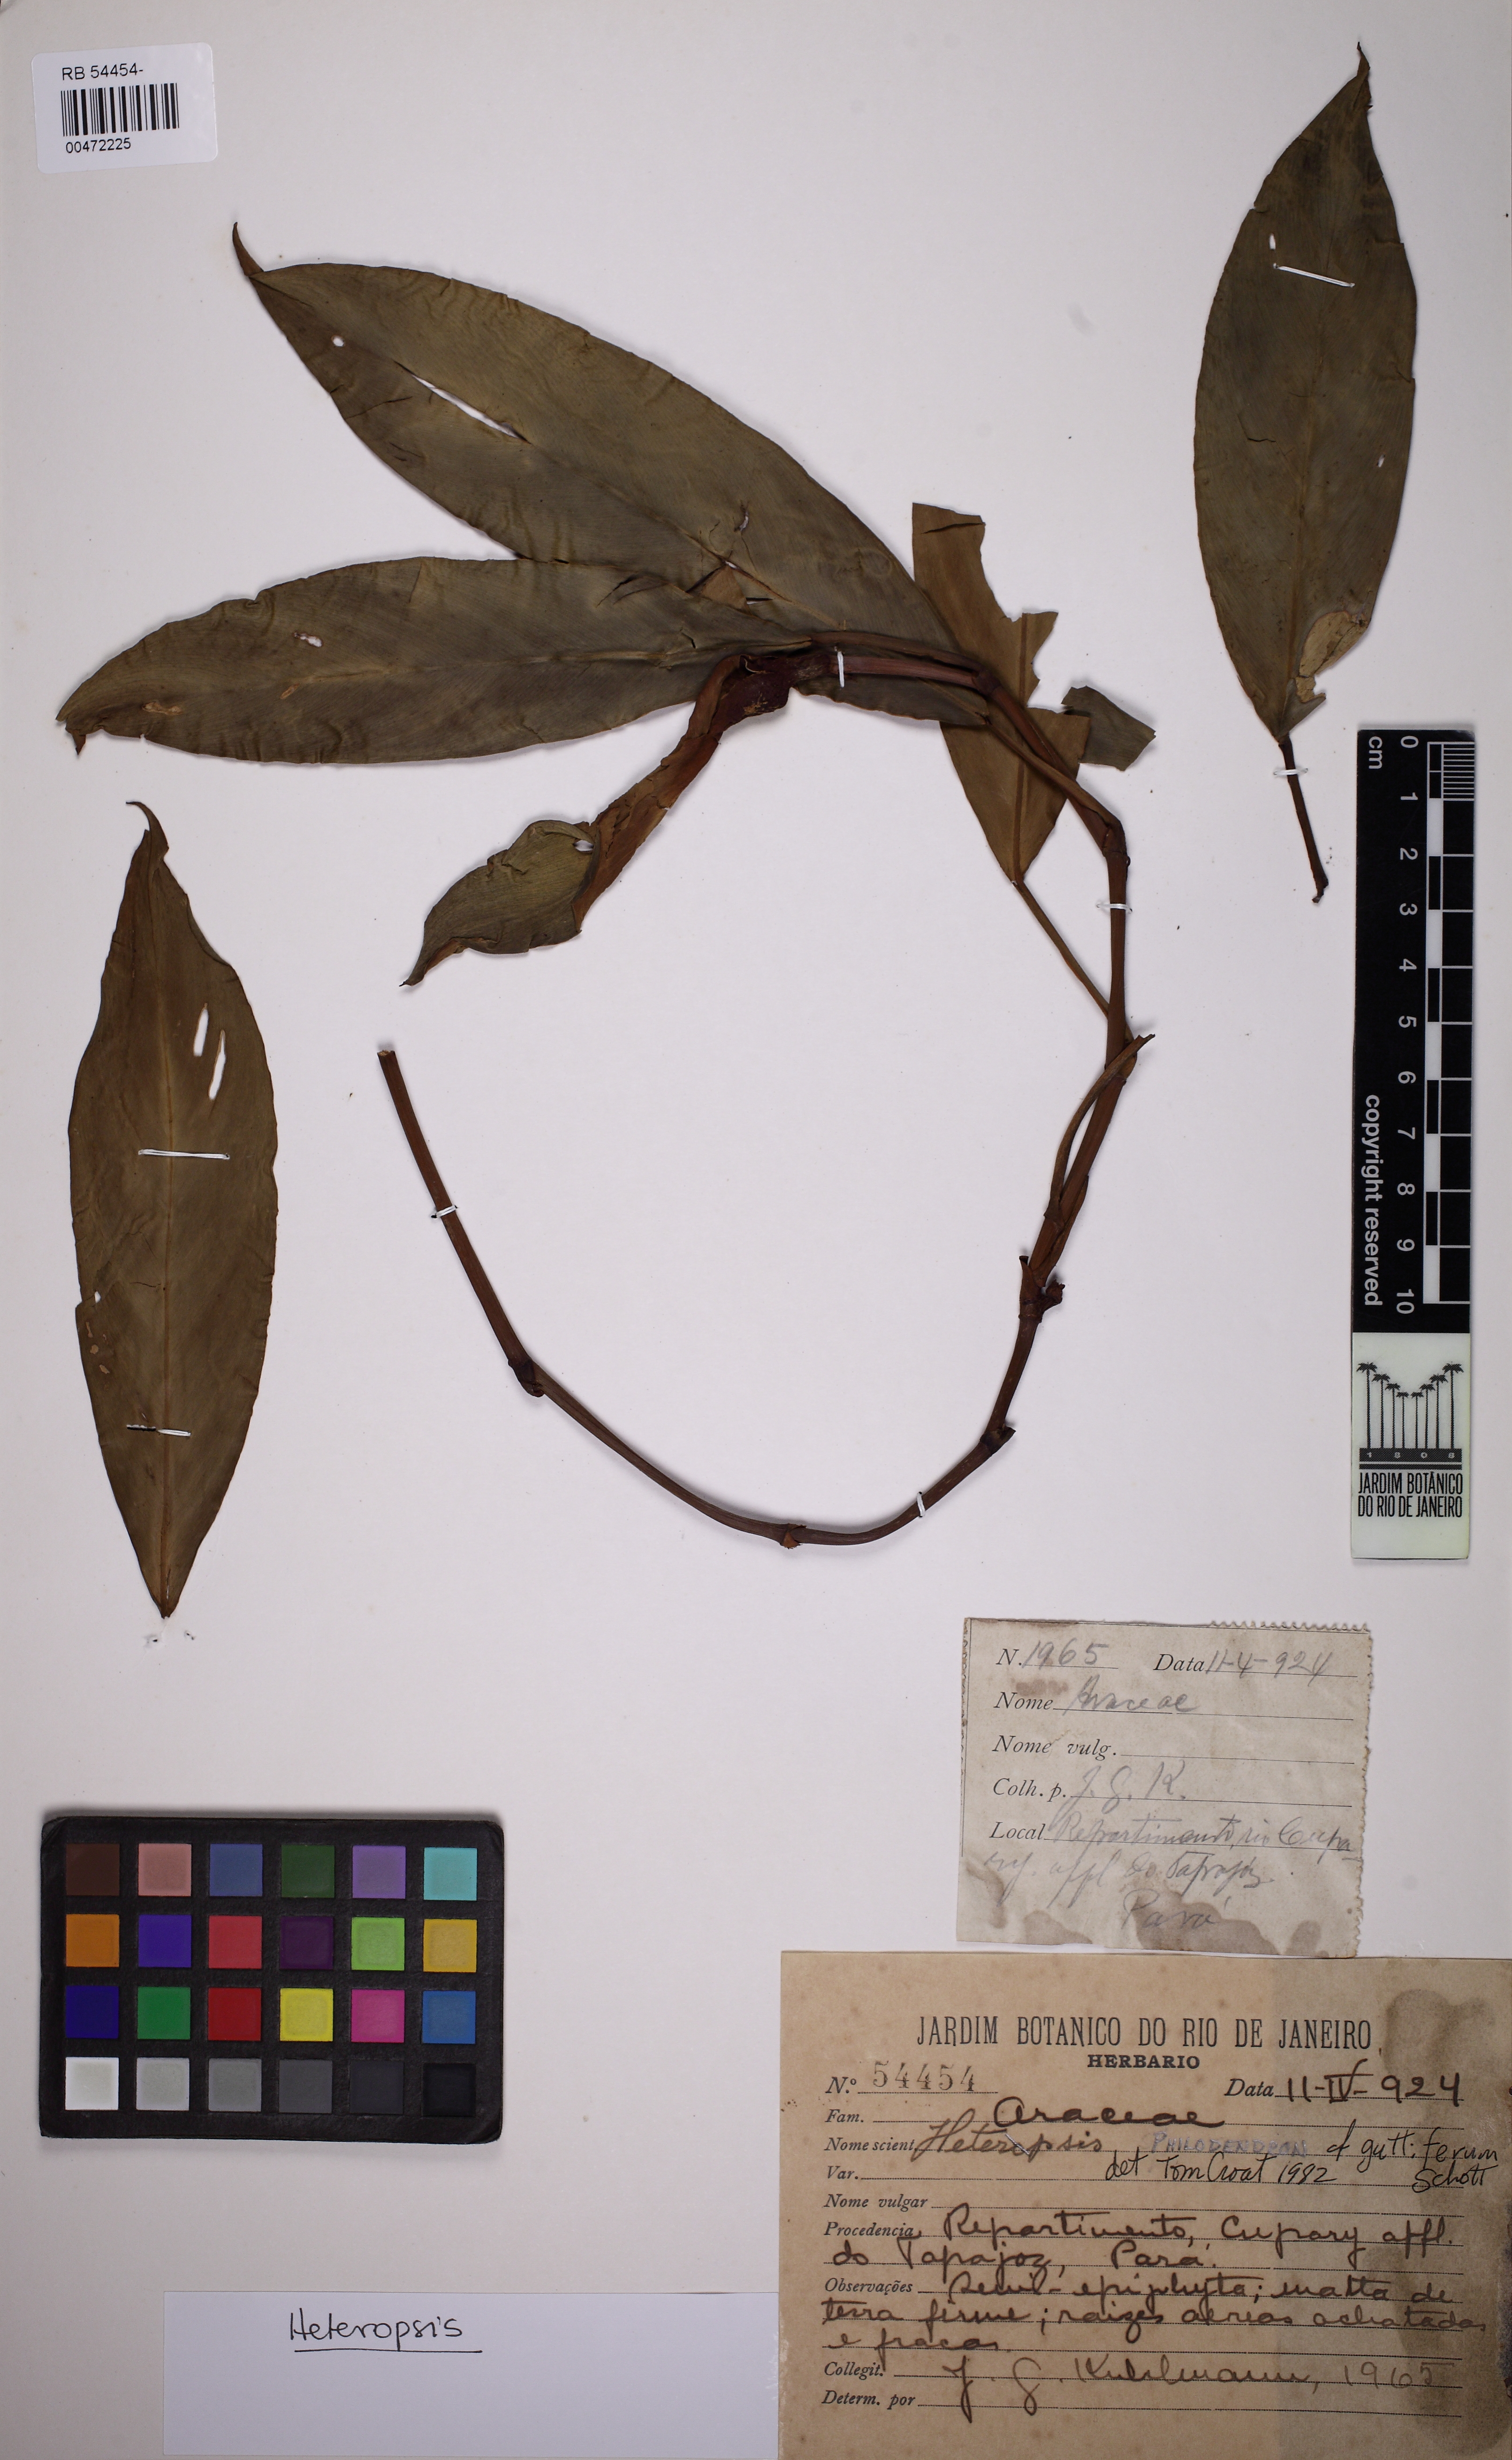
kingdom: Plantae
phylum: Tracheophyta
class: Liliopsida
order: Alismatales
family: Araceae
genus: Heteropsis
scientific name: Heteropsis tenuispadix
